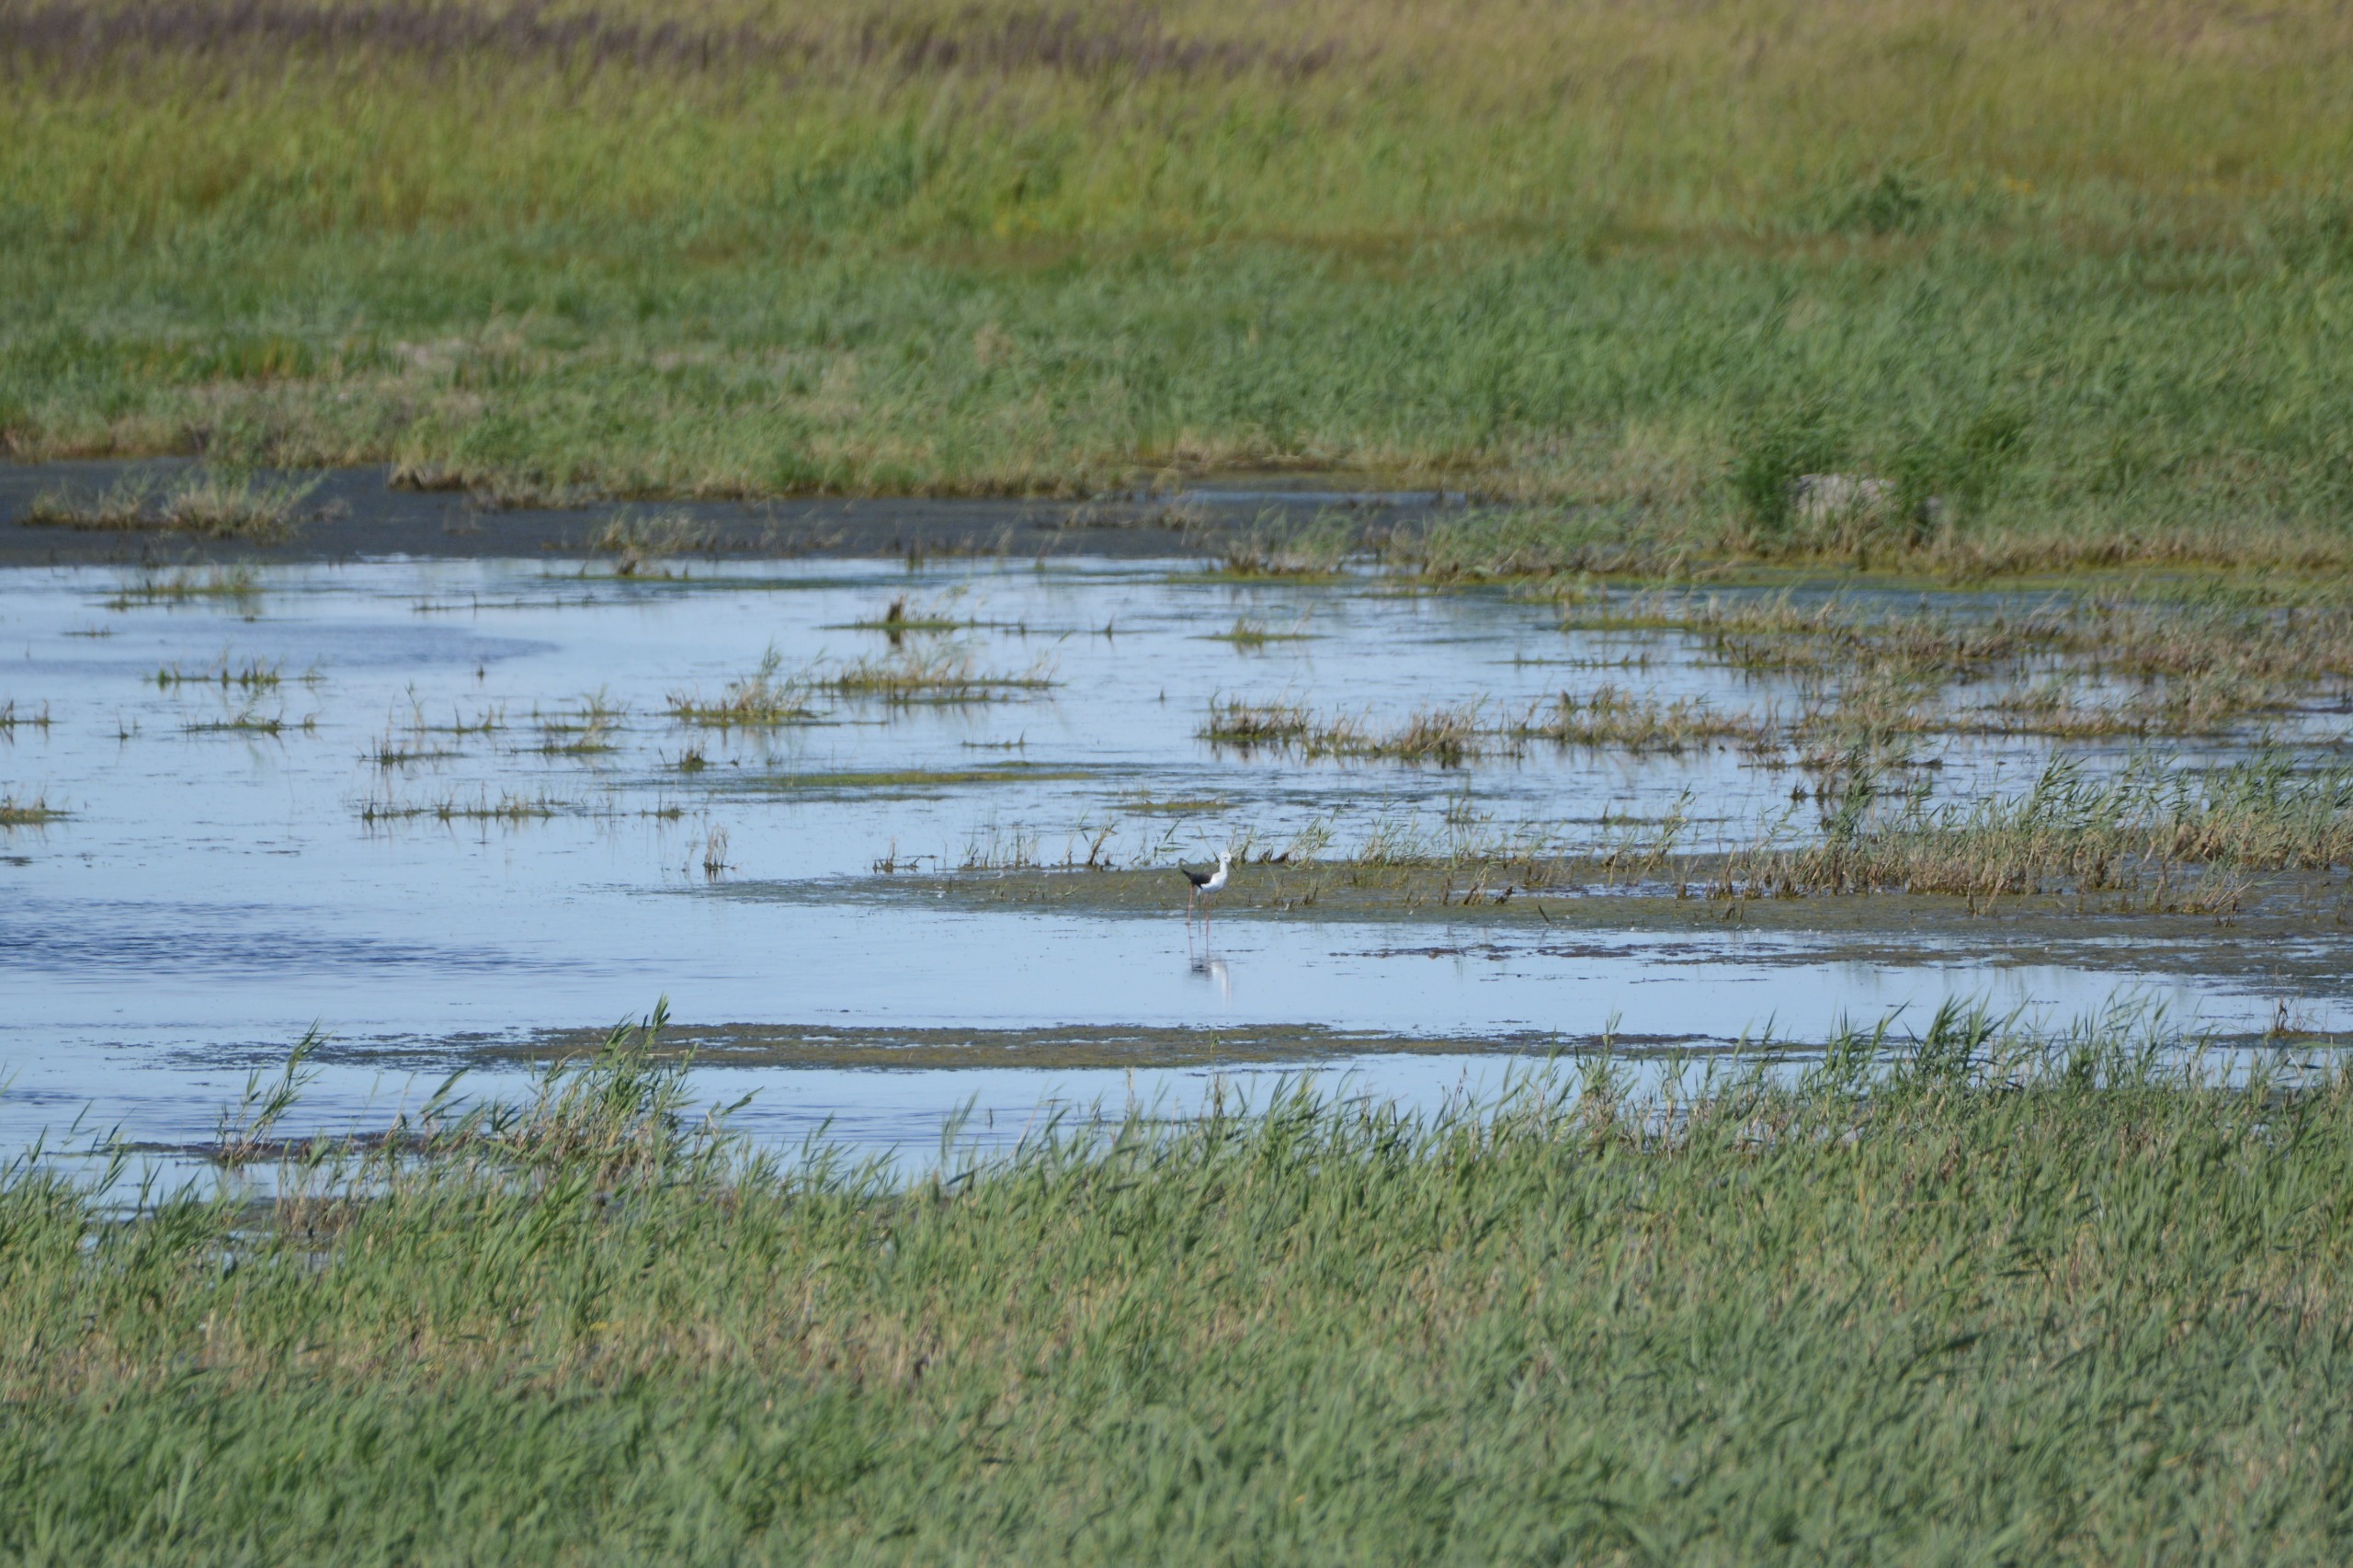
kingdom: Animalia
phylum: Chordata
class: Aves
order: Charadriiformes
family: Recurvirostridae
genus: Himantopus
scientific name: Himantopus himantopus
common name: Stylteløber
